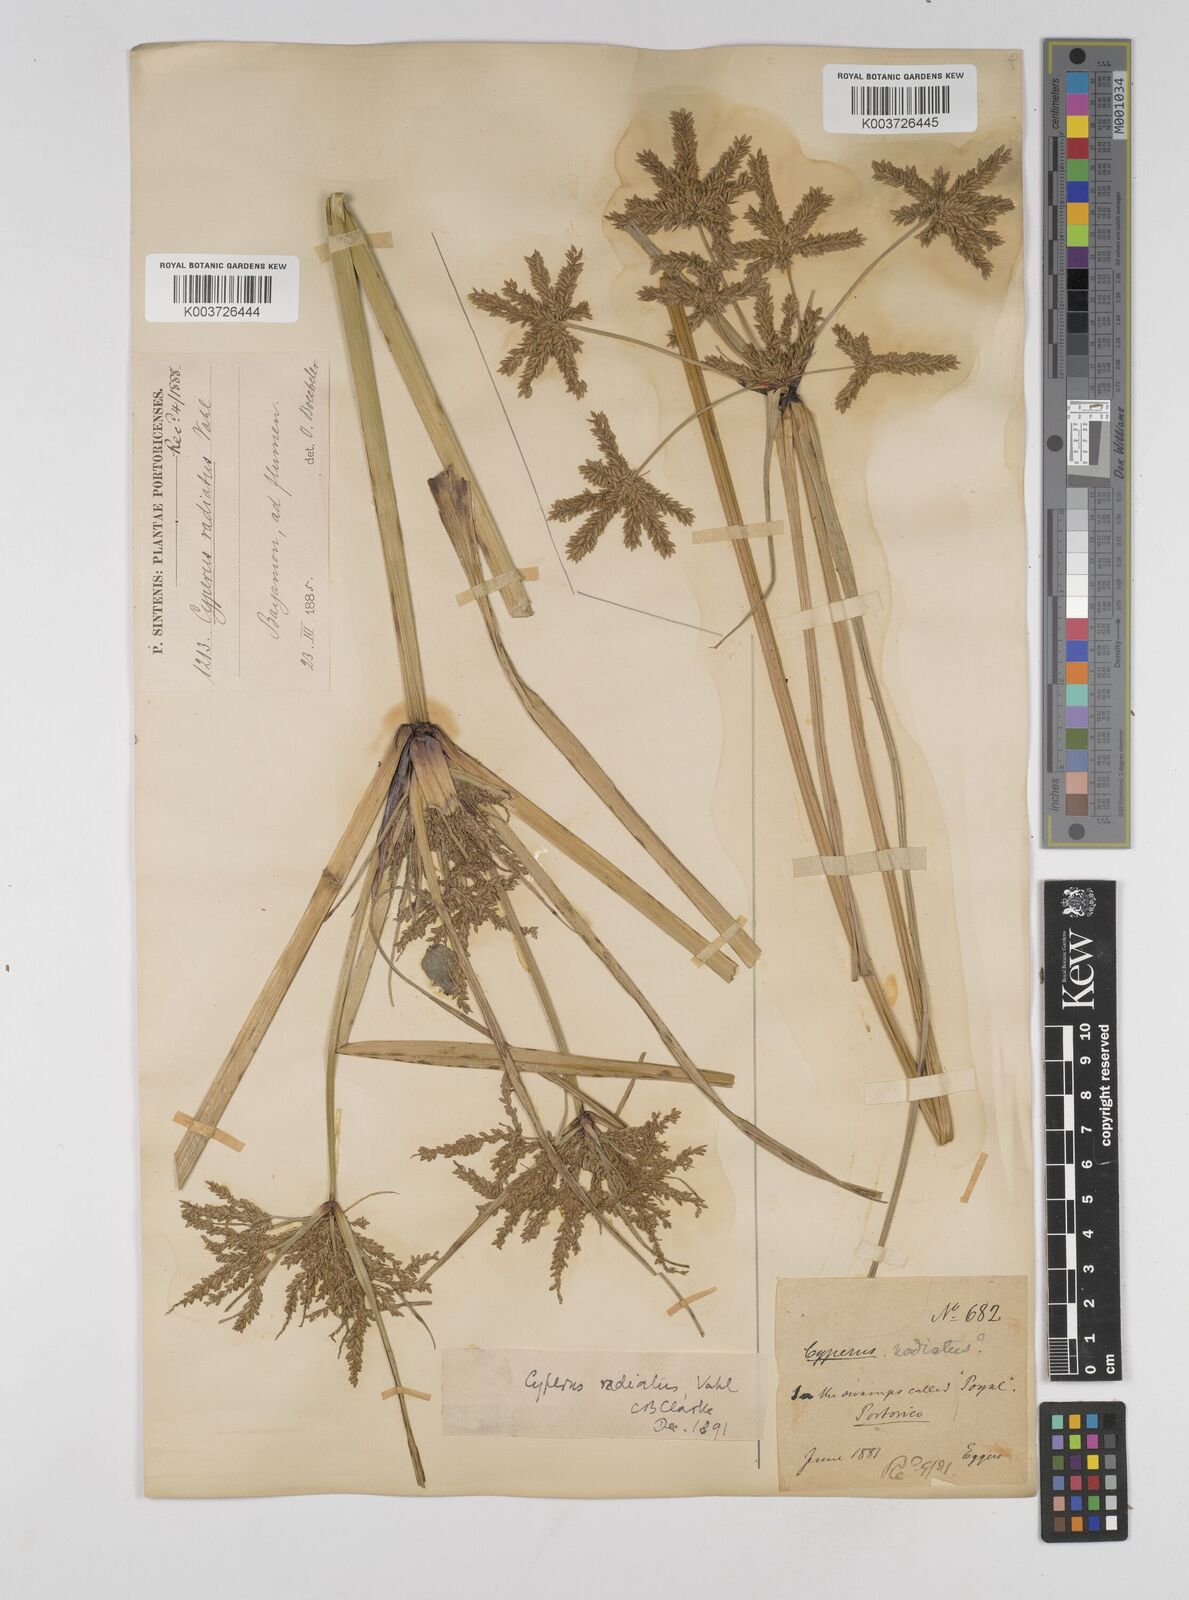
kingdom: Plantae
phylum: Tracheophyta
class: Liliopsida
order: Poales
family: Cyperaceae
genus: Cyperus
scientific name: Cyperus imbricatus
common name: Shingle flatsedge
